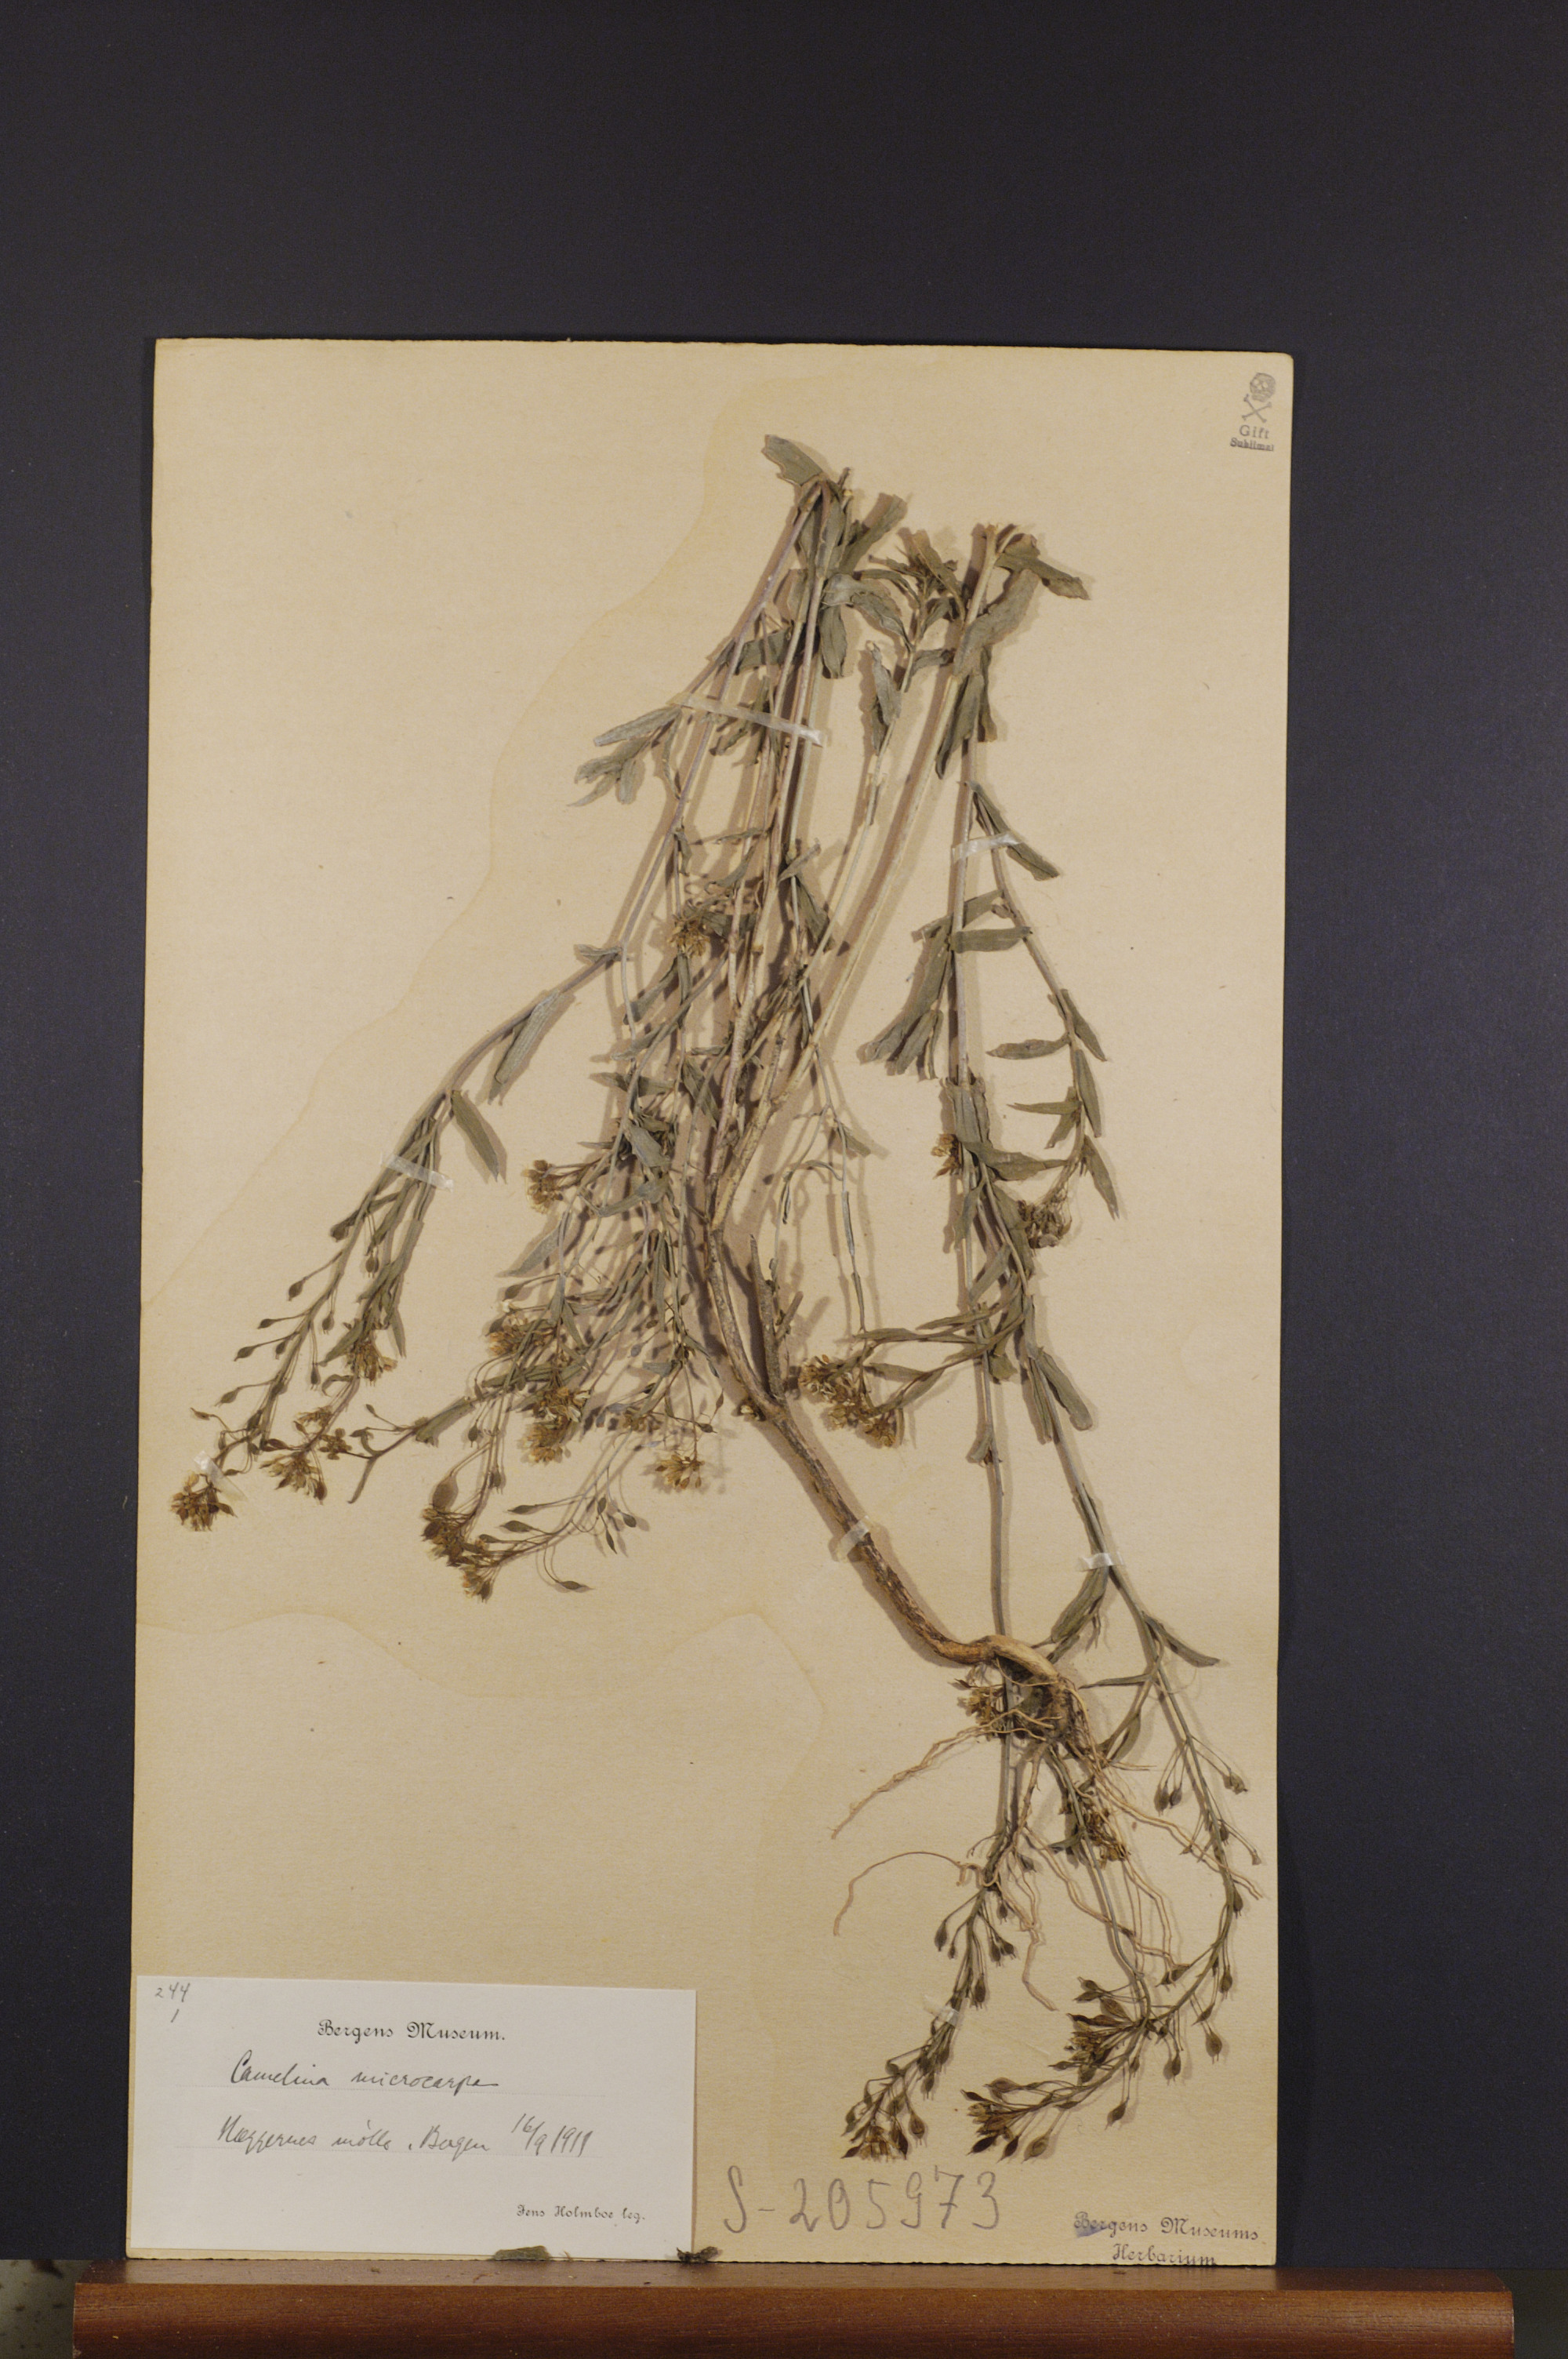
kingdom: Plantae
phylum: Tracheophyta
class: Magnoliopsida
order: Brassicales
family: Brassicaceae
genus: Camelina
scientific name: Camelina sativa
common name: Gold-of-pleasure
